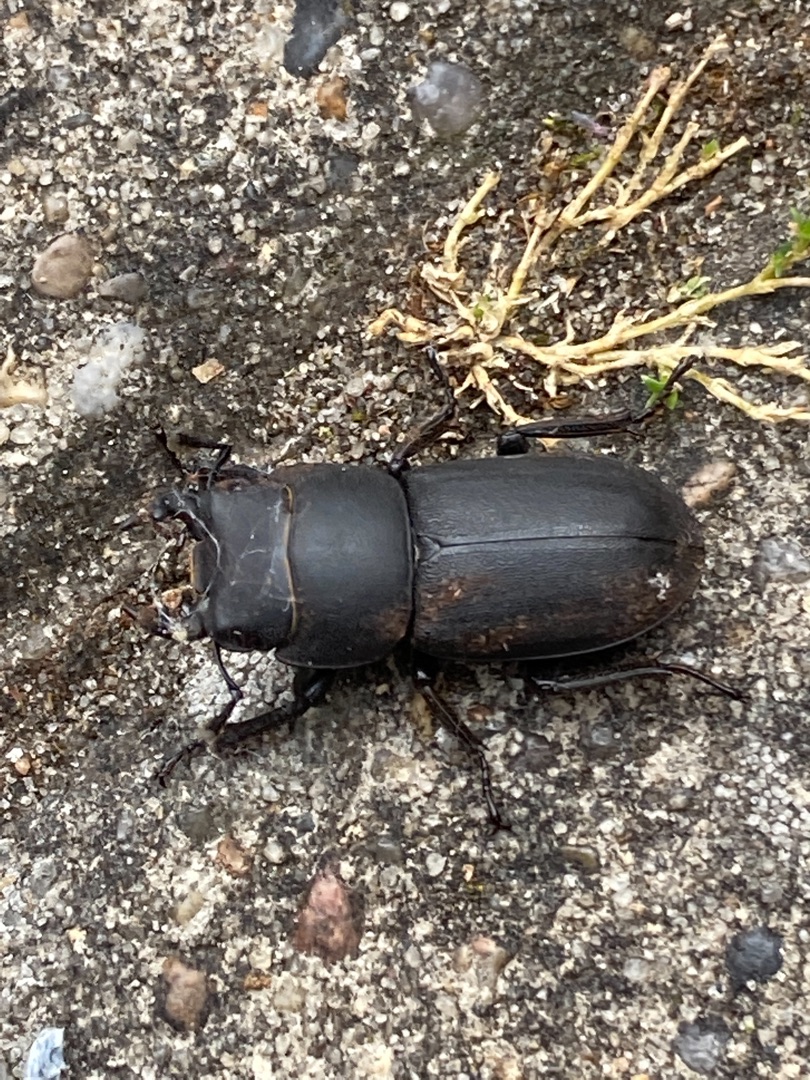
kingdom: Animalia
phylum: Arthropoda
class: Insecta
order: Coleoptera
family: Lucanidae
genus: Dorcus
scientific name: Dorcus parallelipipedus
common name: Bøghjort
